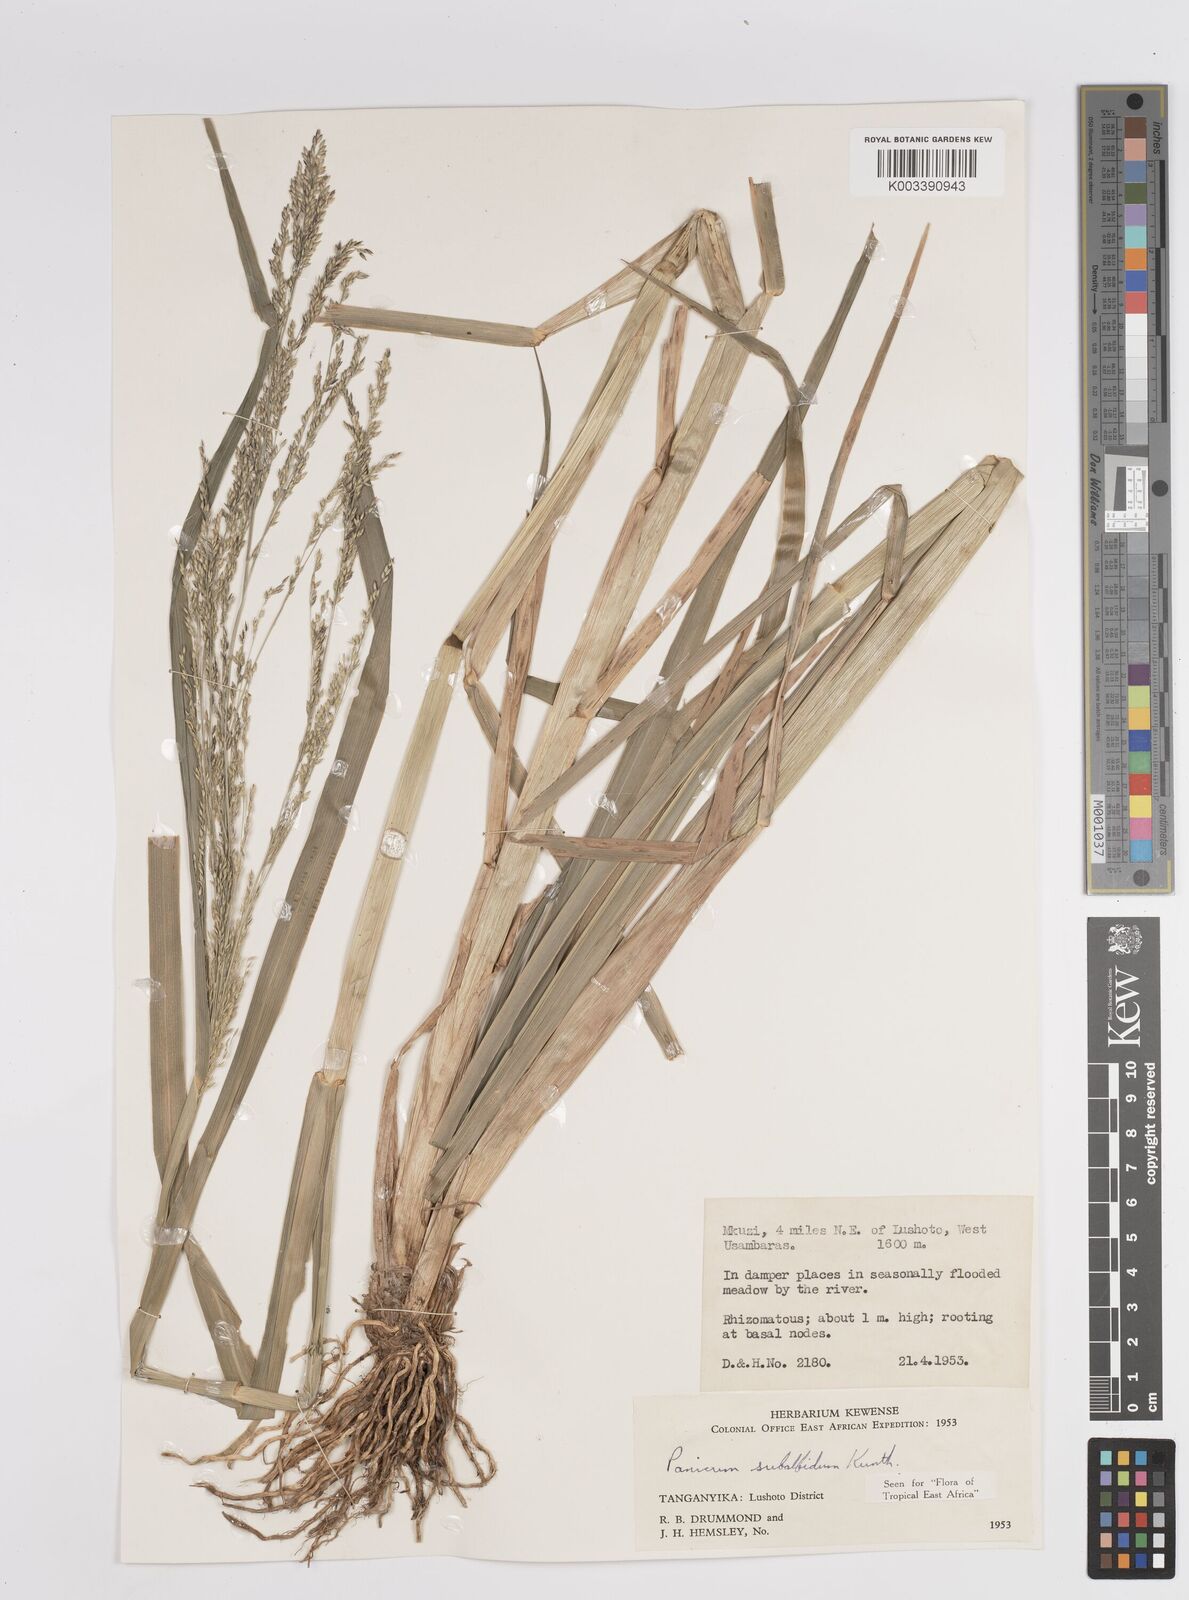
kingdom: Plantae
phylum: Tracheophyta
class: Liliopsida
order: Poales
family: Poaceae
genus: Panicum
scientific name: Panicum subalbidum
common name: Elbow buffalo grass
